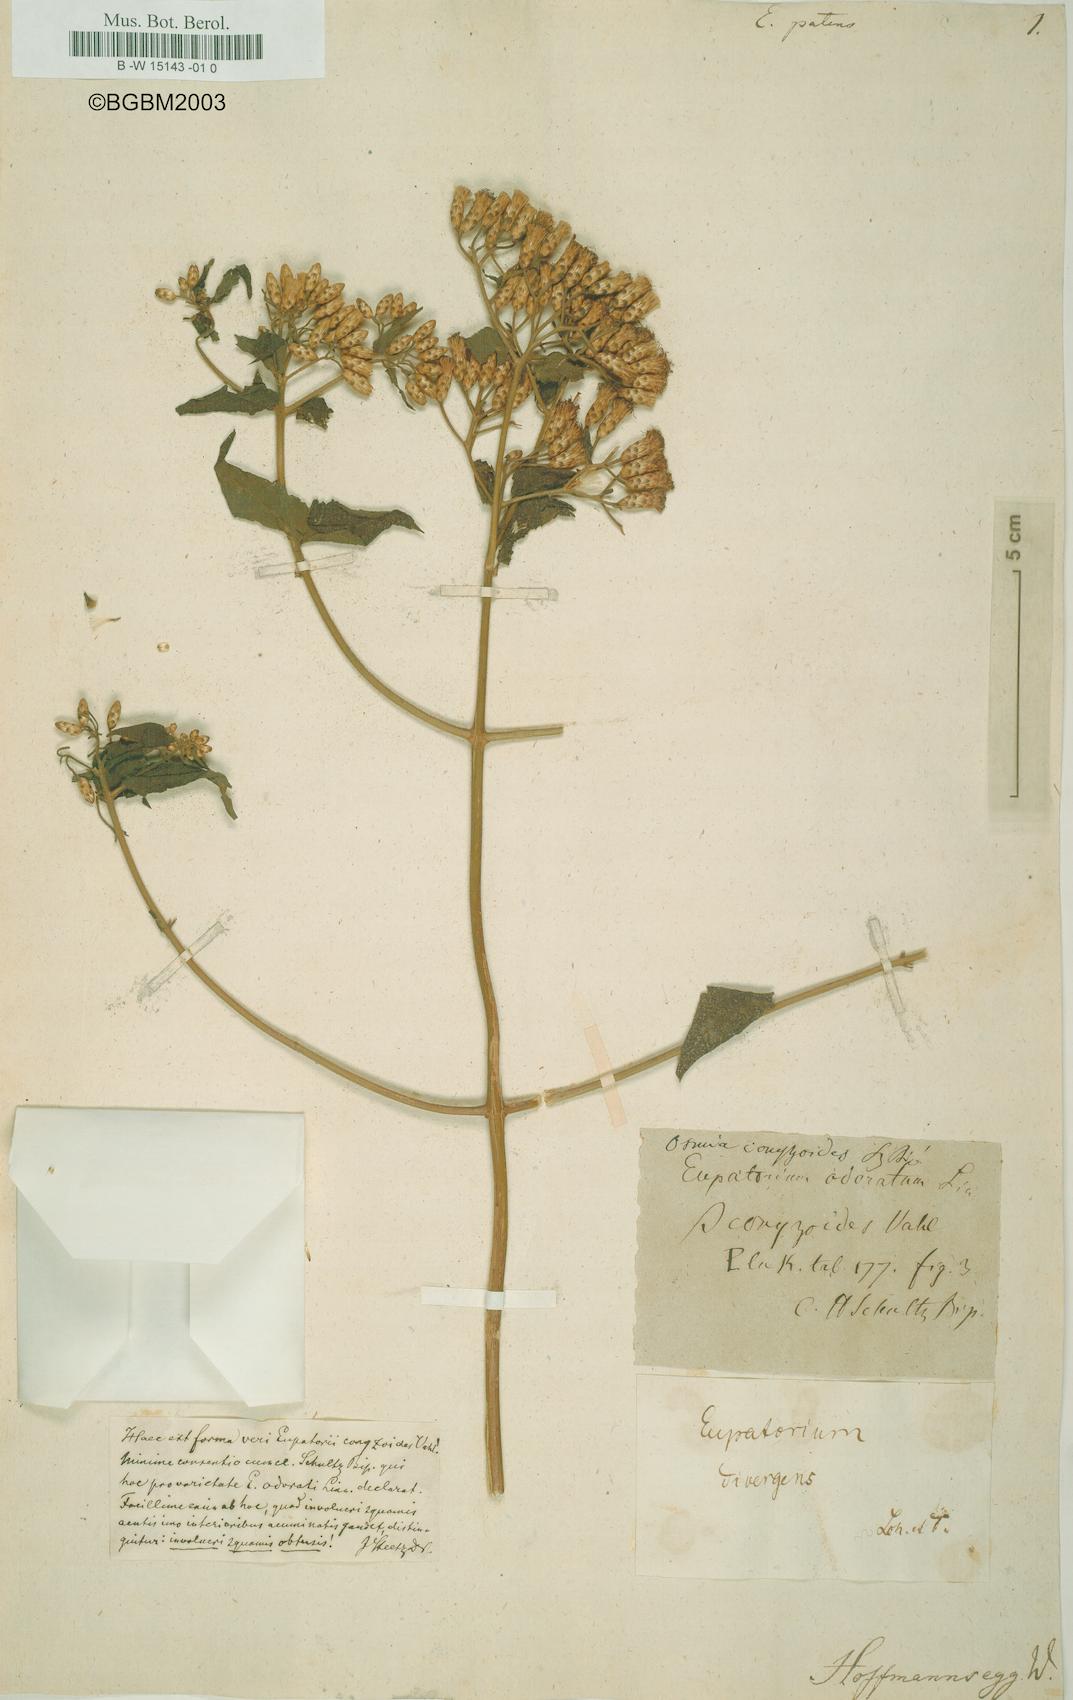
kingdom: Plantae
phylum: Tracheophyta
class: Magnoliopsida
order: Asterales
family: Asteraceae
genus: Austrobrickellia
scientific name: Austrobrickellia patens
